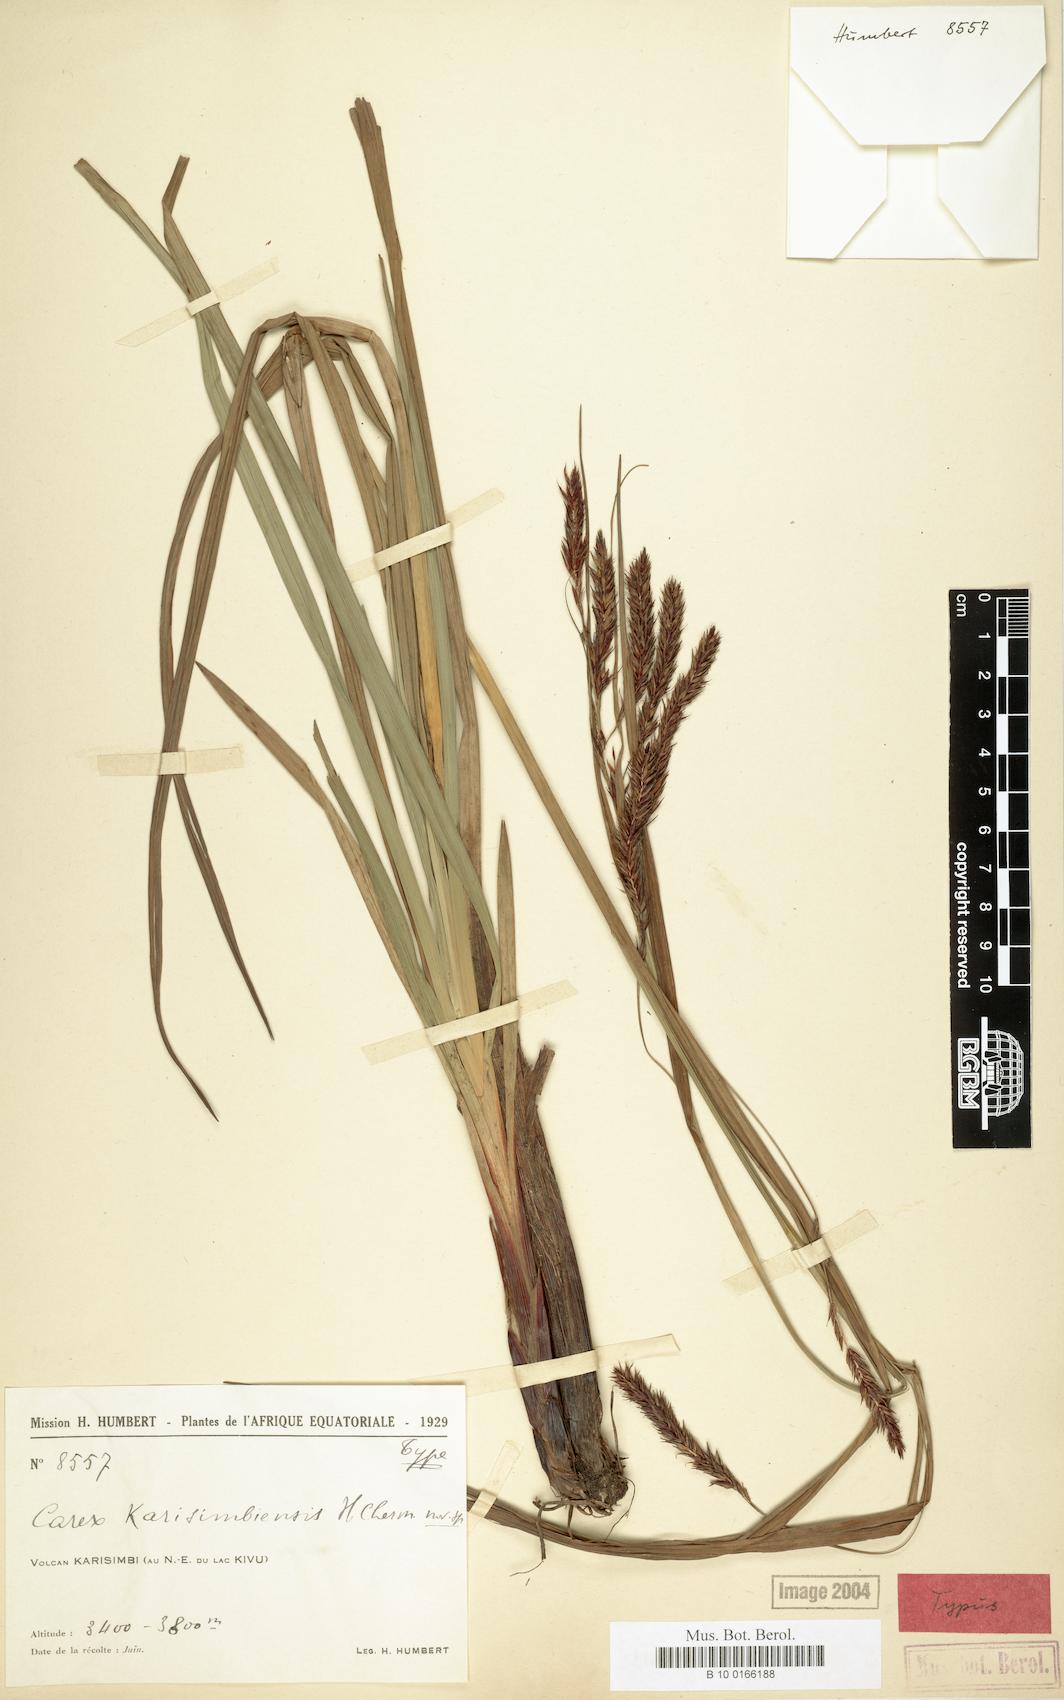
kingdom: Plantae
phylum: Tracheophyta
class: Liliopsida
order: Poales
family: Cyperaceae
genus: Carex
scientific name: Carex simensis
